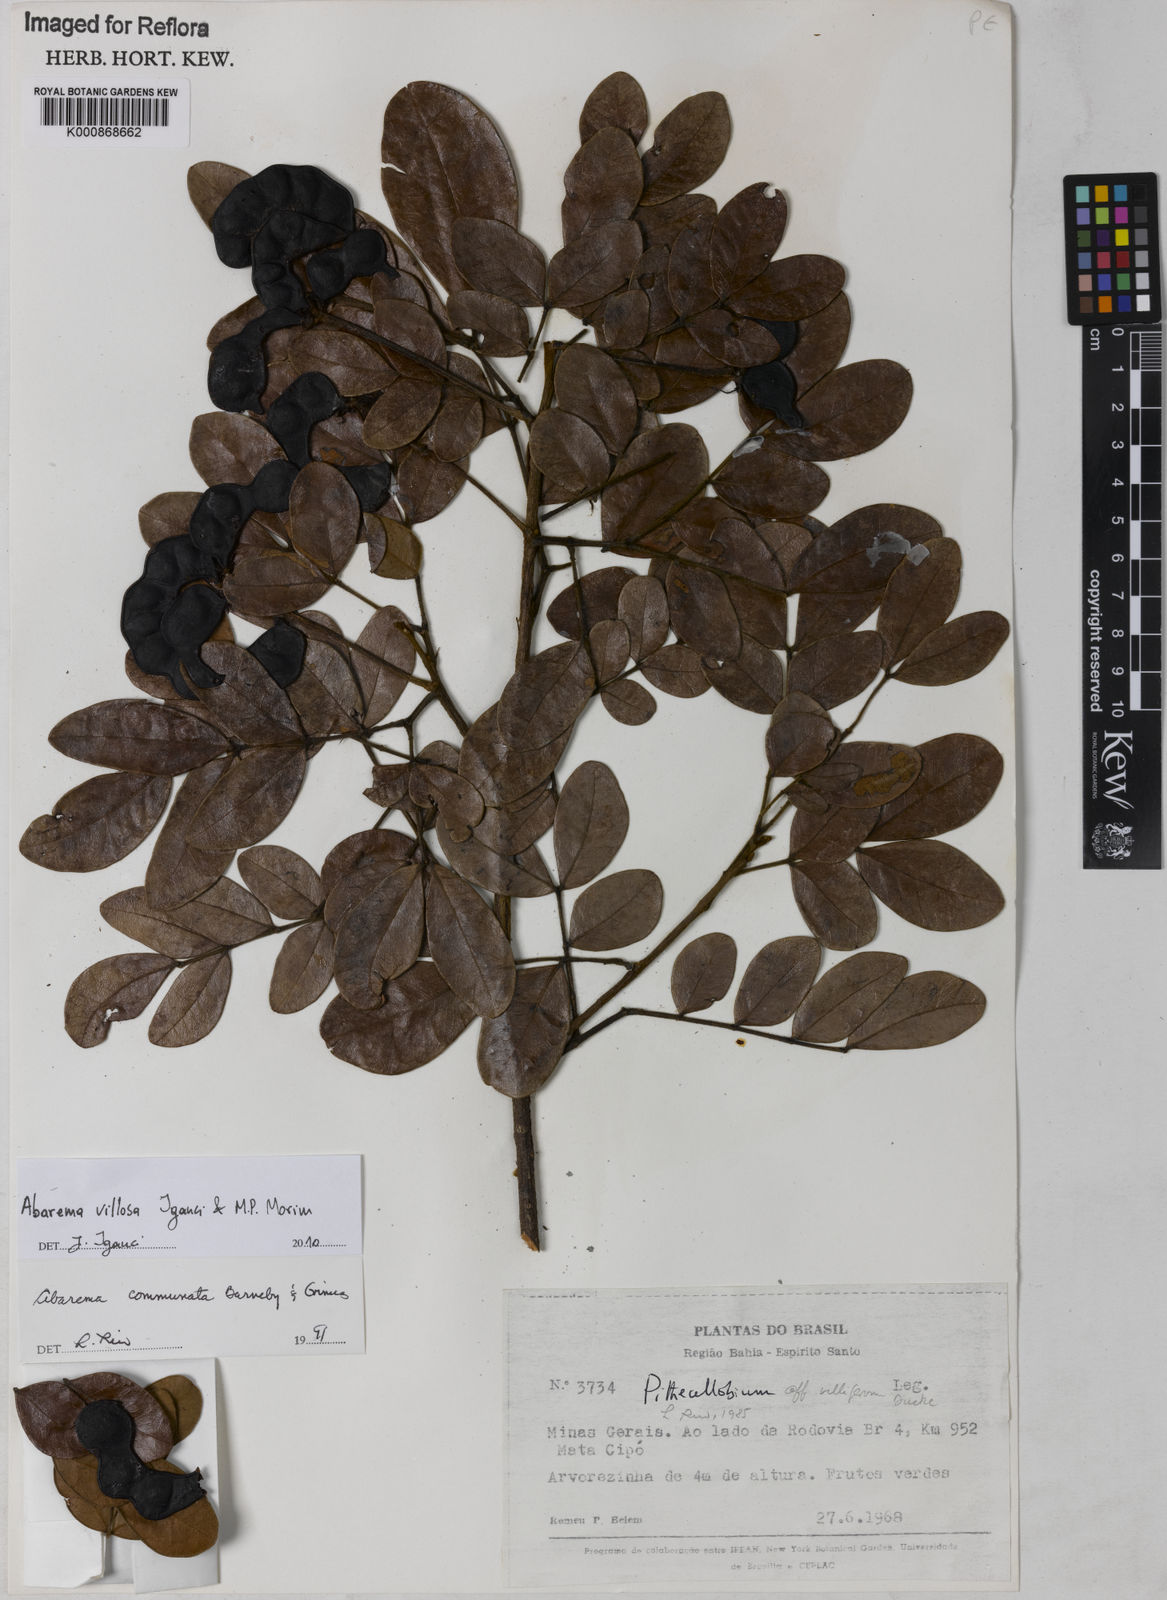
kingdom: Plantae
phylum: Tracheophyta
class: Magnoliopsida
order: Fabales
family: Fabaceae
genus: Jupunba
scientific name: Jupunba villosa
